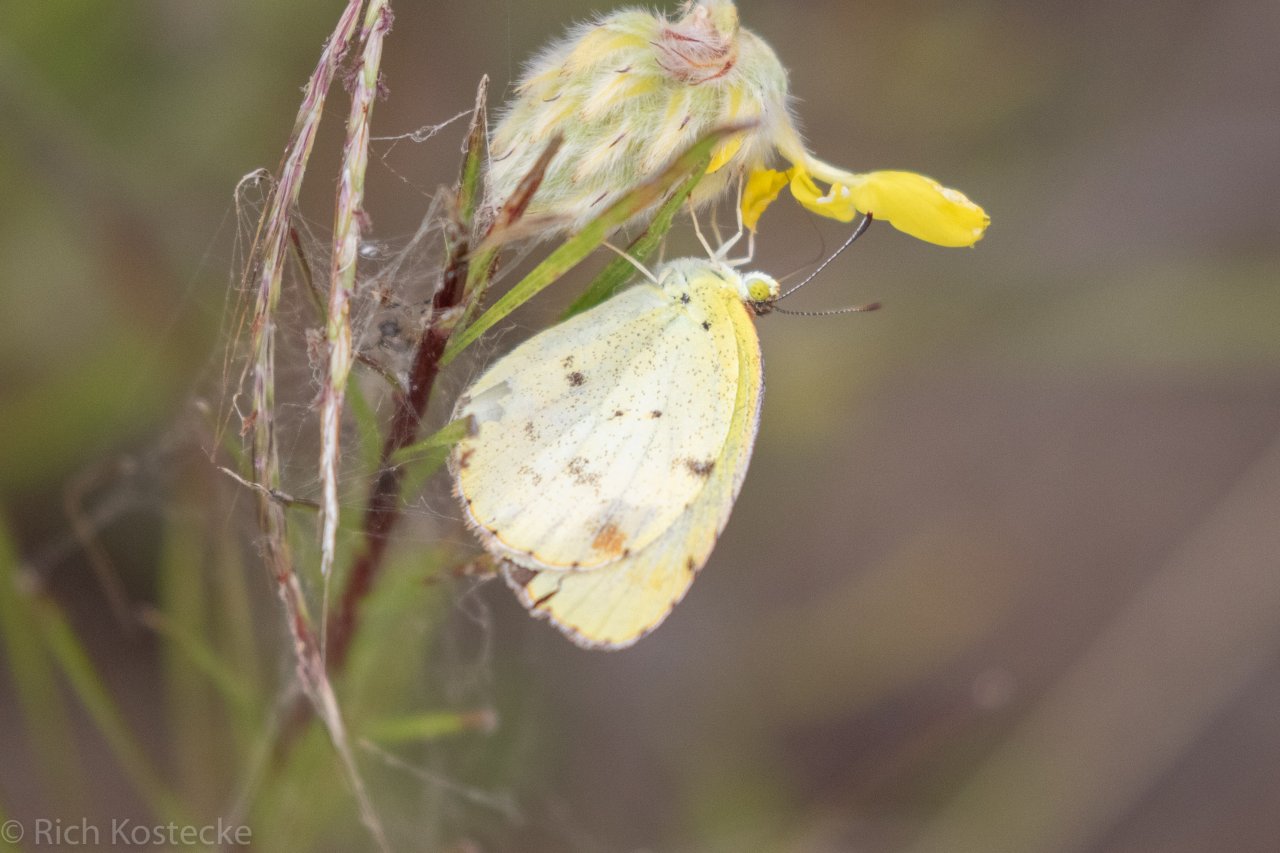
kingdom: Animalia
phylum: Arthropoda
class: Insecta
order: Lepidoptera
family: Pieridae
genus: Pyrisitia
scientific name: Pyrisitia lisa
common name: Little Yellow
